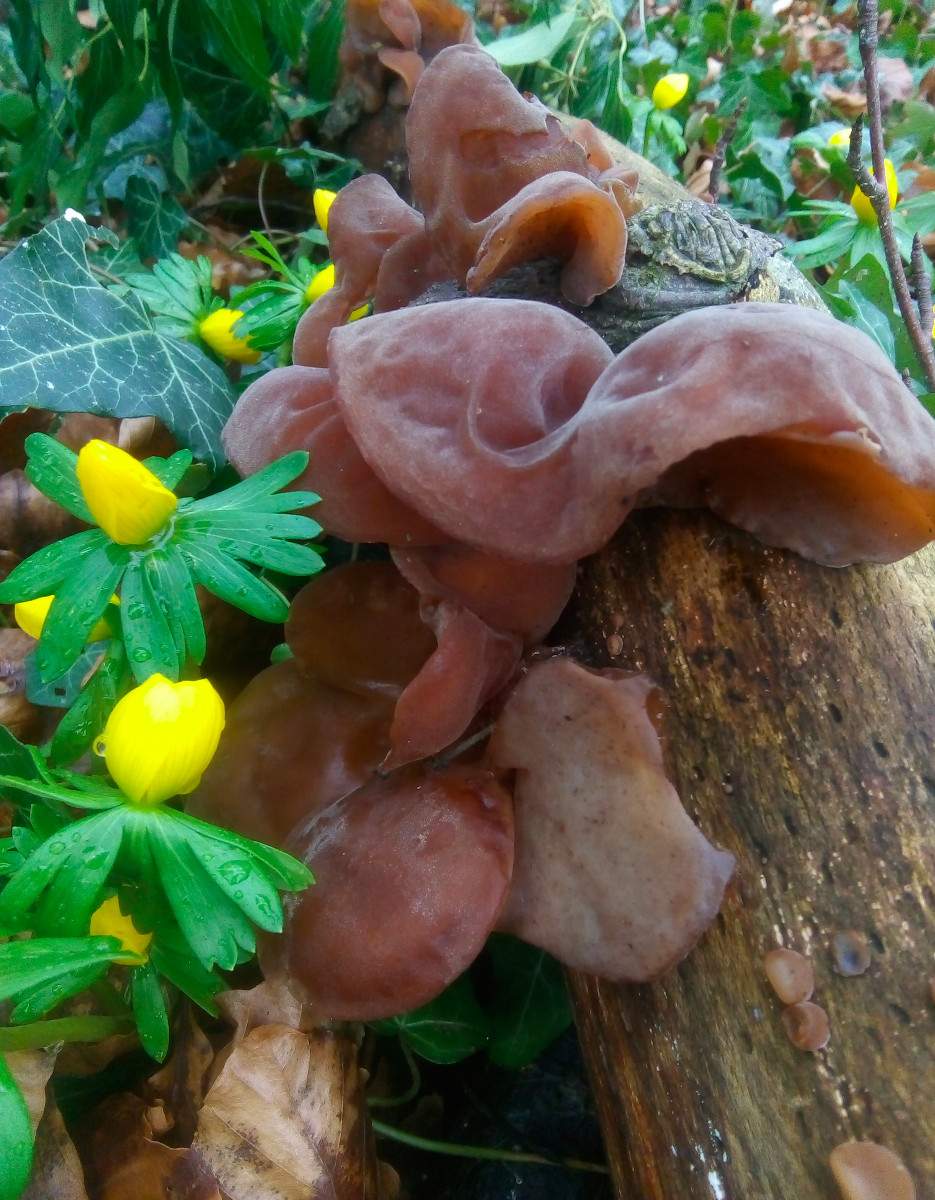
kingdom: Fungi
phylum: Basidiomycota
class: Agaricomycetes
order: Auriculariales
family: Auriculariaceae
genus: Auricularia
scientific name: Auricularia auricula-judae
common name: almindelig judasøre
